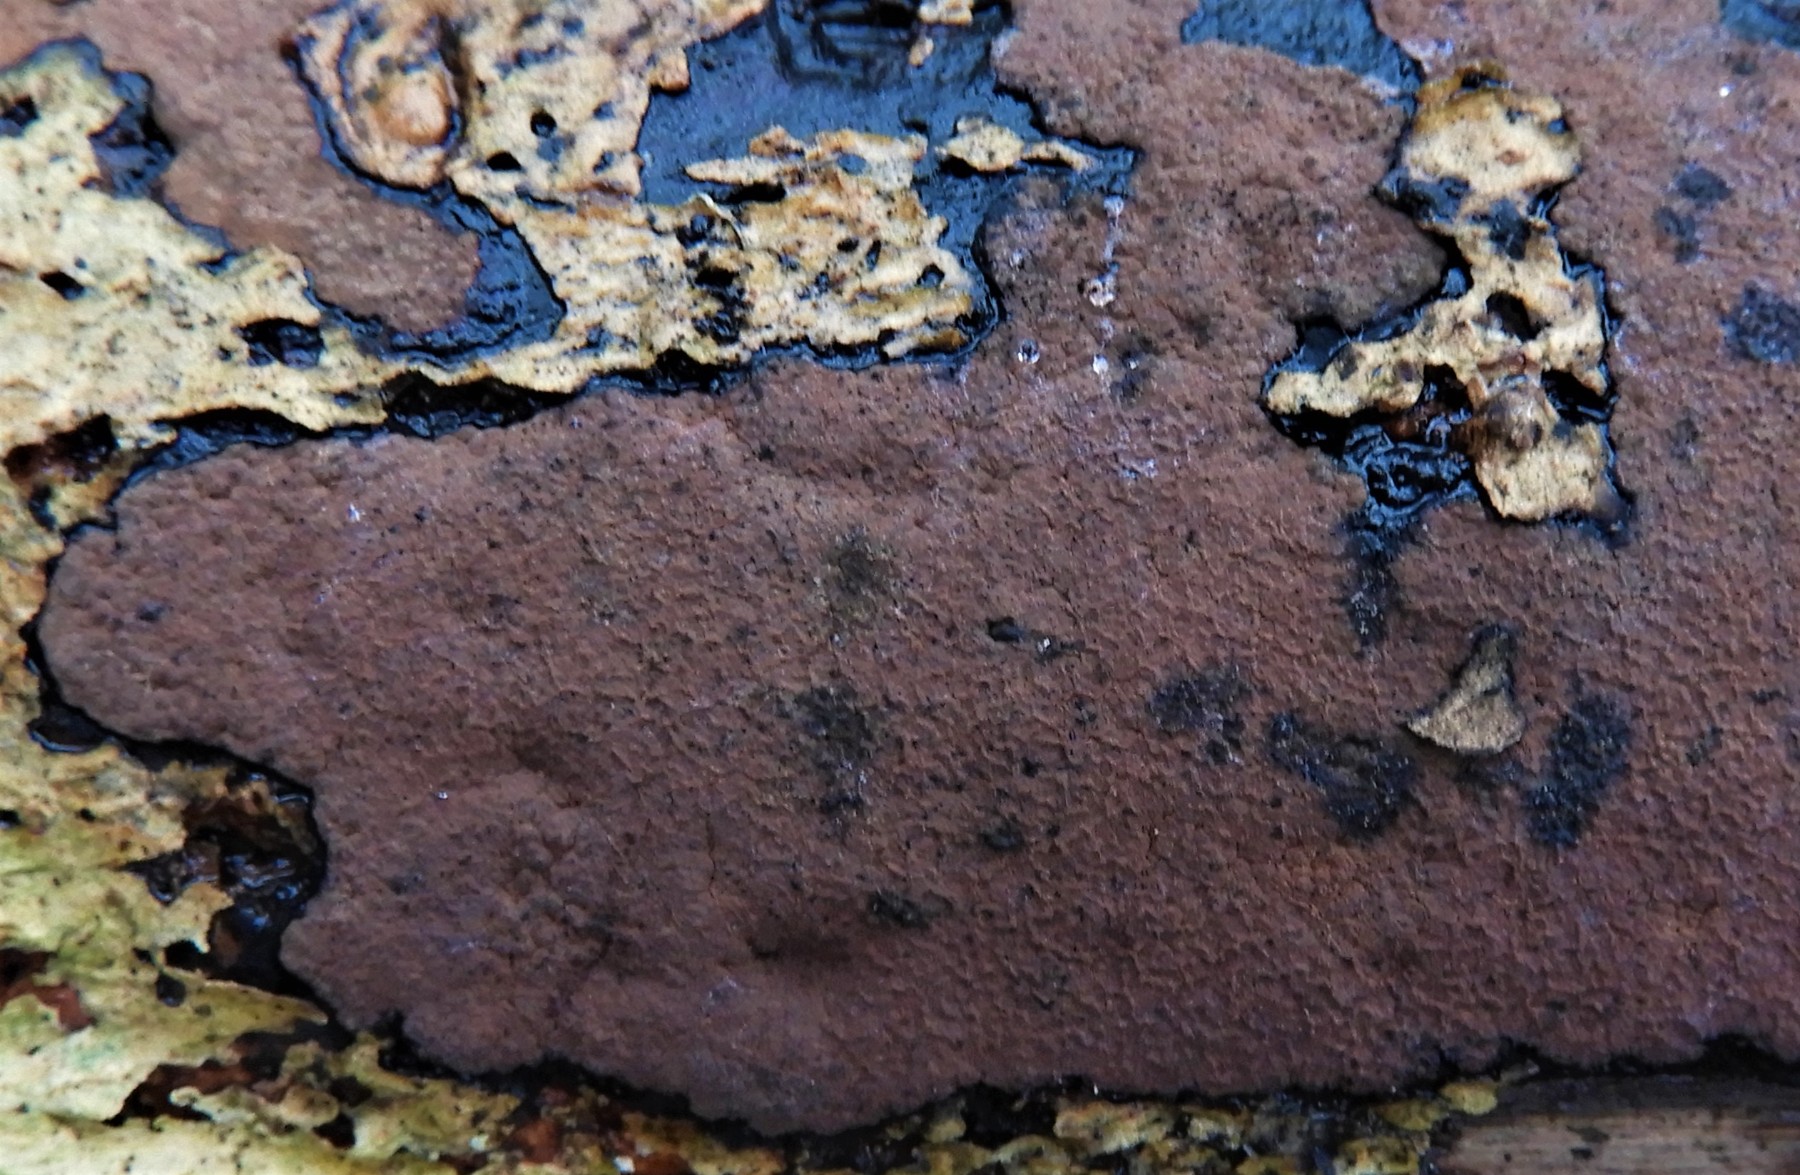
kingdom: Fungi
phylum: Ascomycota
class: Sordariomycetes
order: Xylariales
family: Hypoxylaceae
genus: Hypoxylon
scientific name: Hypoxylon petriniae
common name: nedsænket kulbær
